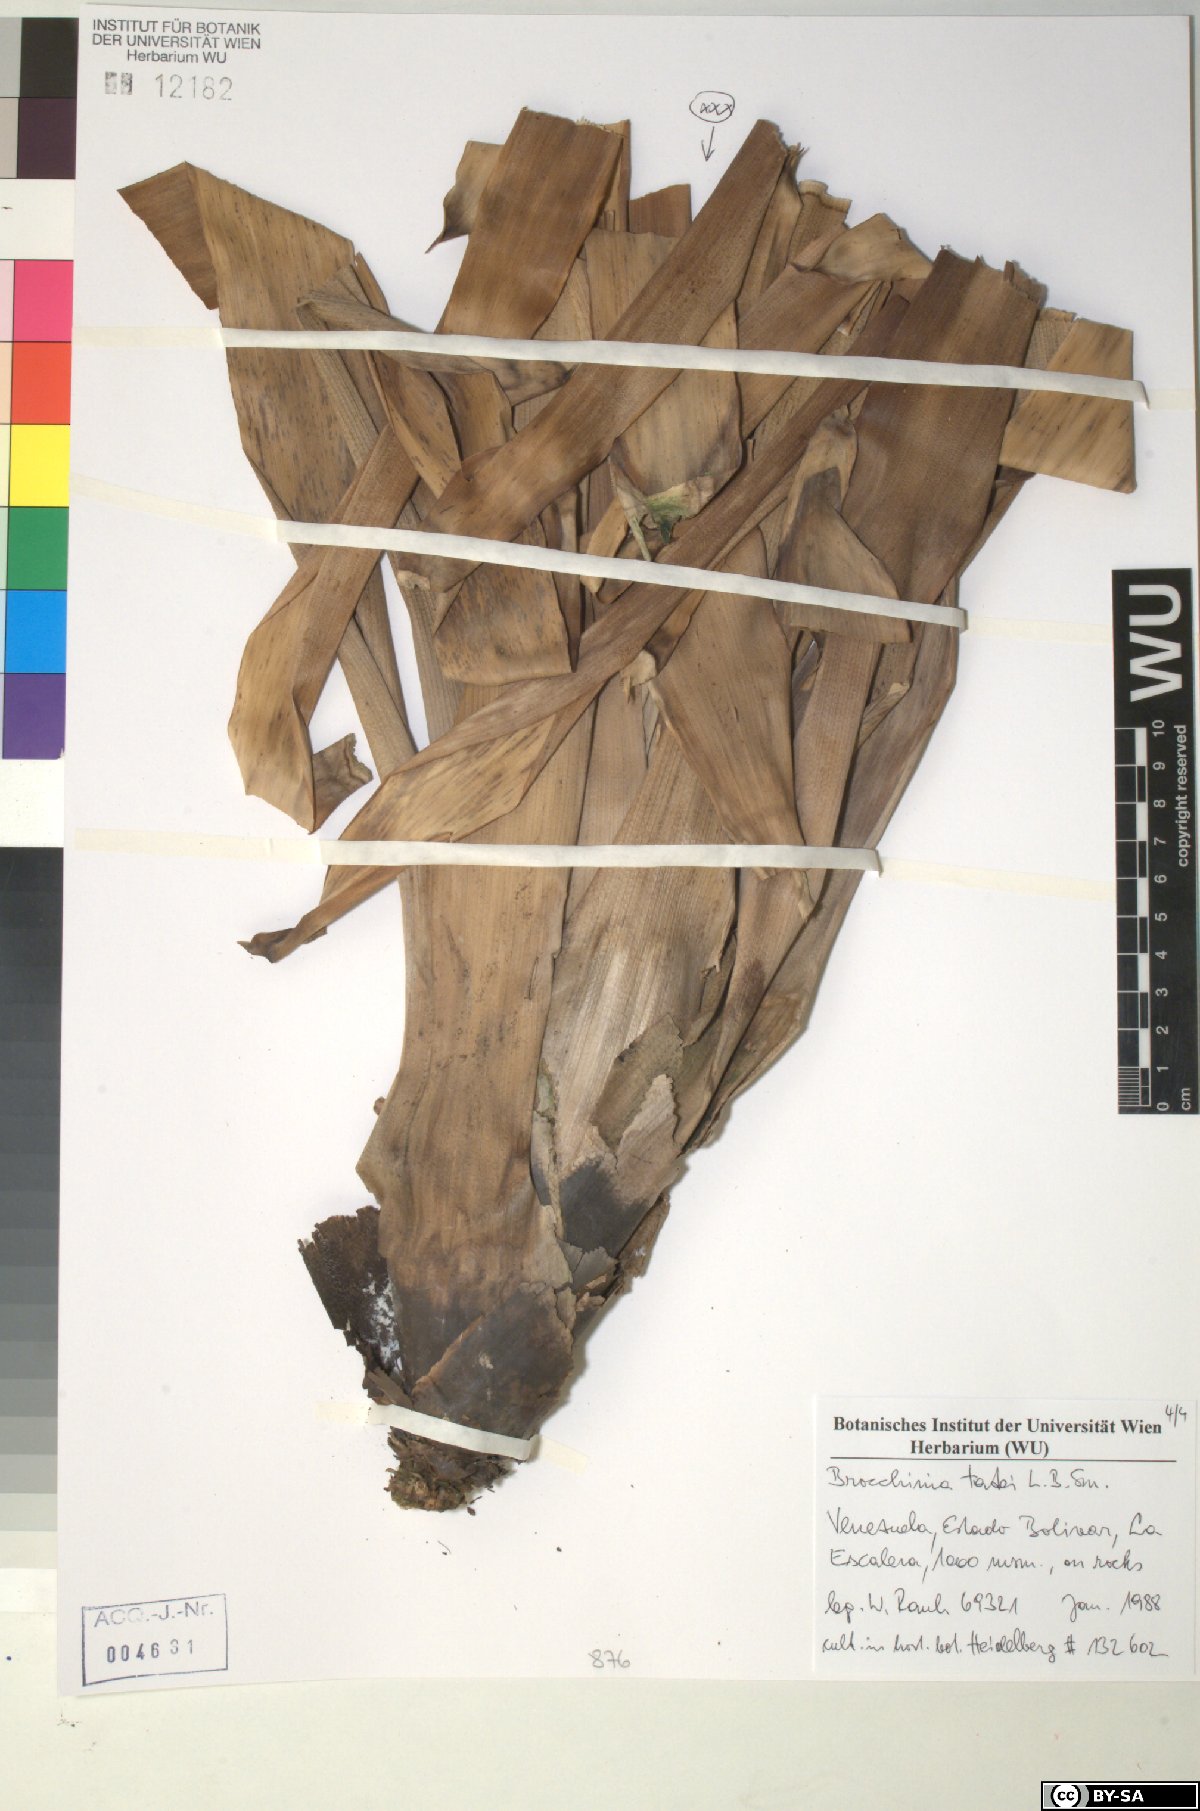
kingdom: Plantae
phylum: Tracheophyta
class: Liliopsida
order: Poales
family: Bromeliaceae
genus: Brocchinia
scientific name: Brocchinia tatei
